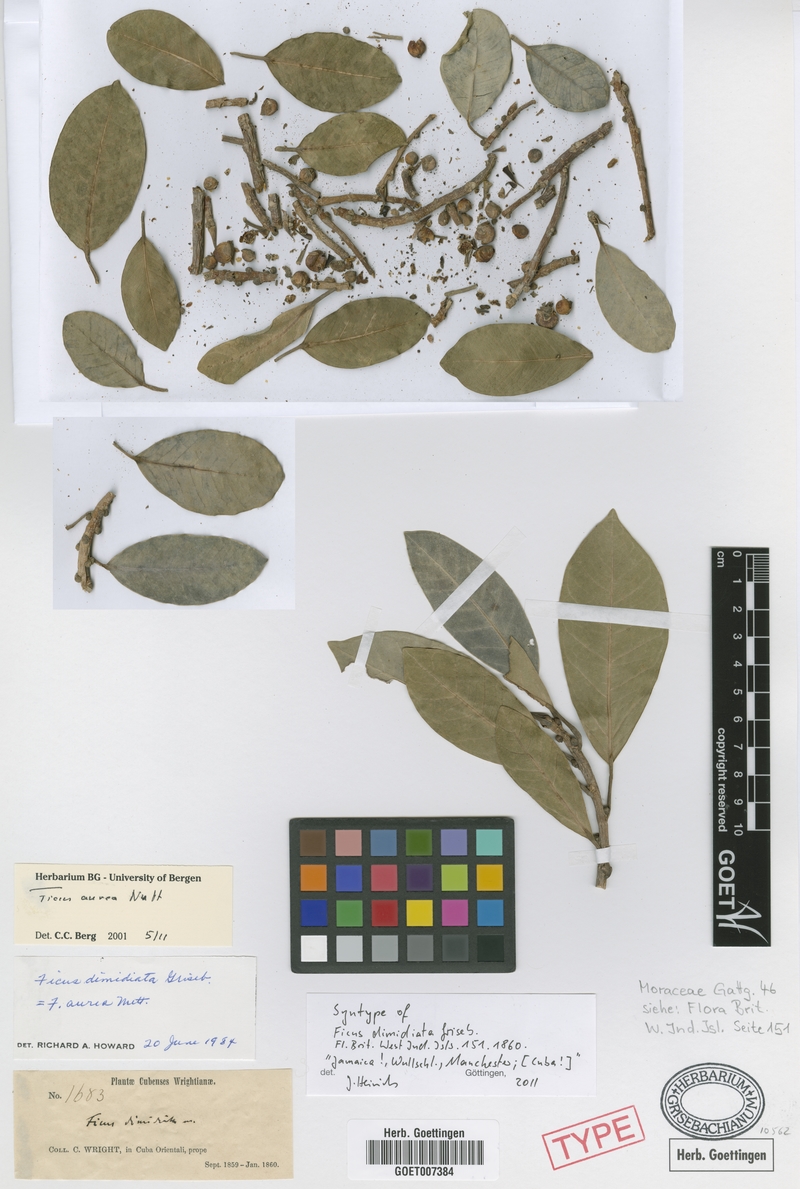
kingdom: Plantae
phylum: Tracheophyta
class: Magnoliopsida
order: Rosales
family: Moraceae
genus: Ficus
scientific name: Ficus aurea
